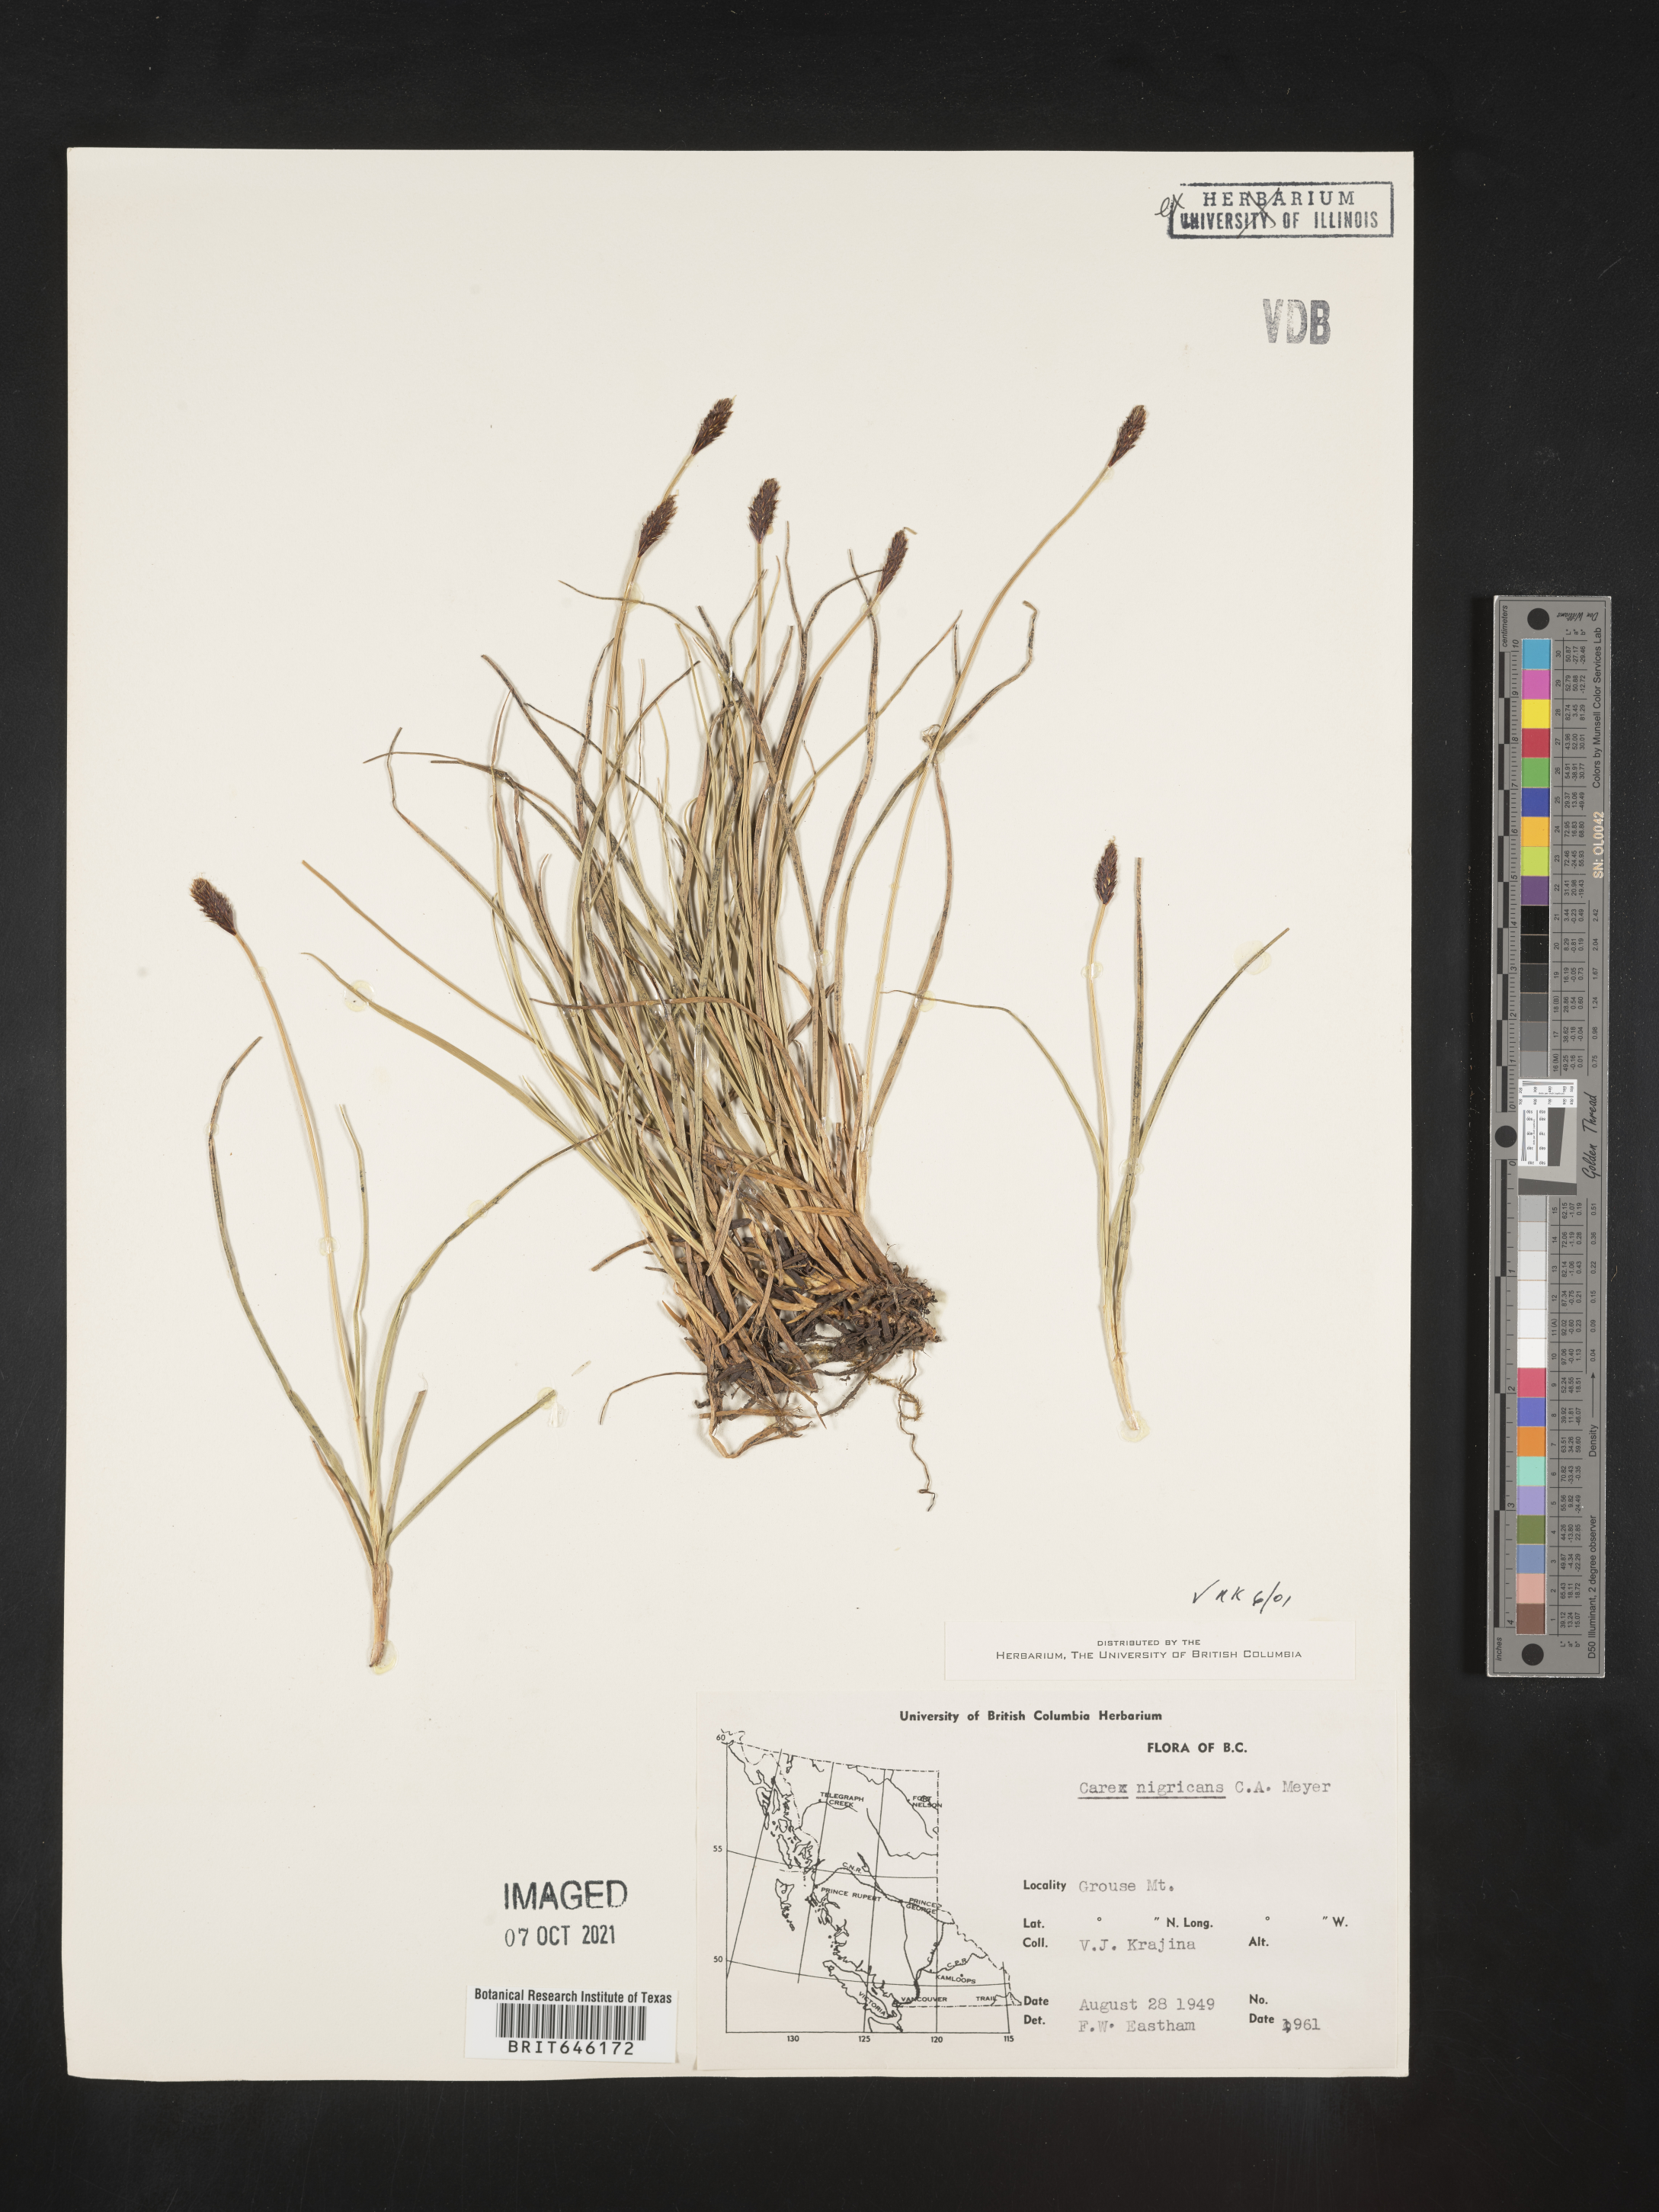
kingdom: Plantae
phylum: Tracheophyta
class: Liliopsida
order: Poales
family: Cyperaceae
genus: Carex
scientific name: Carex nigricans
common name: Black alpine sedge
